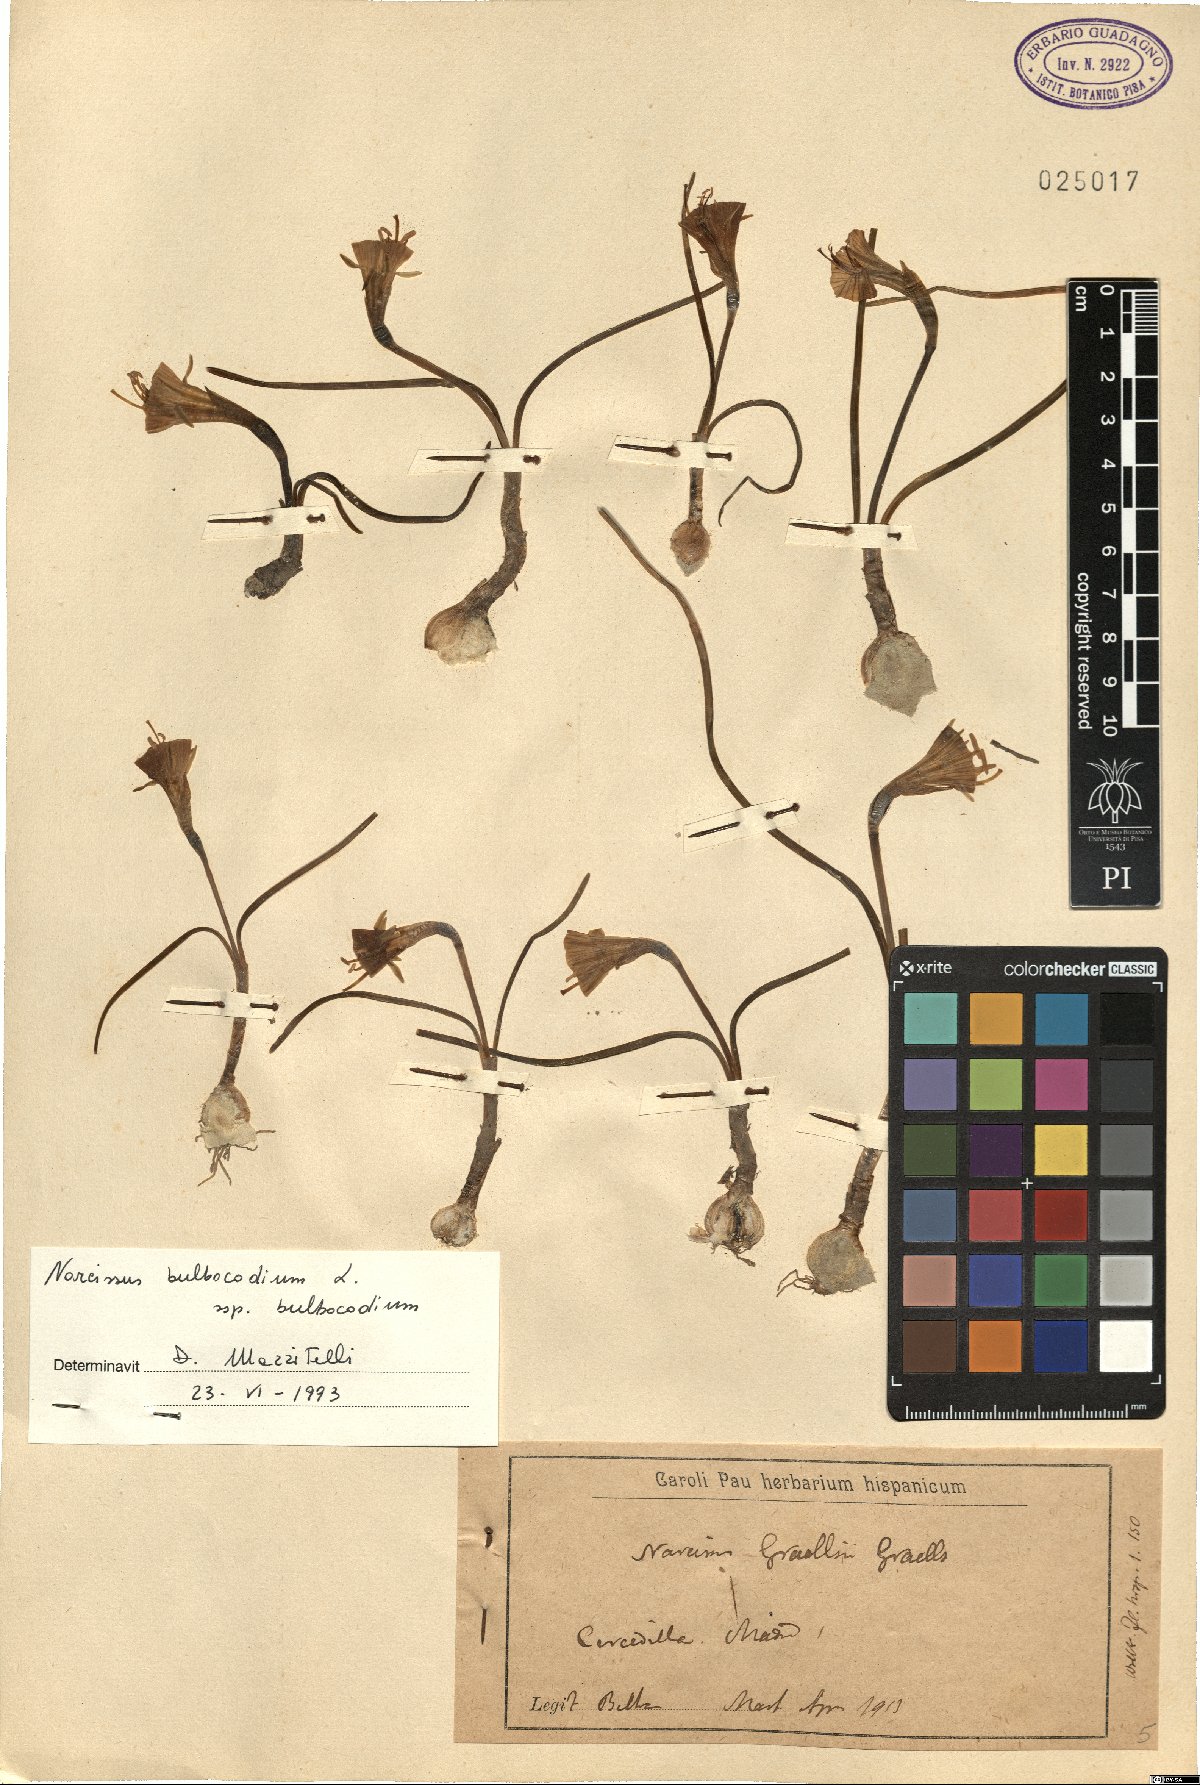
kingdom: Plantae
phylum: Tracheophyta
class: Liliopsida
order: Asparagales
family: Amaryllidaceae
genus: Narcissus
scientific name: Narcissus bulbocodium
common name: Hoop-petticoat daffodil
